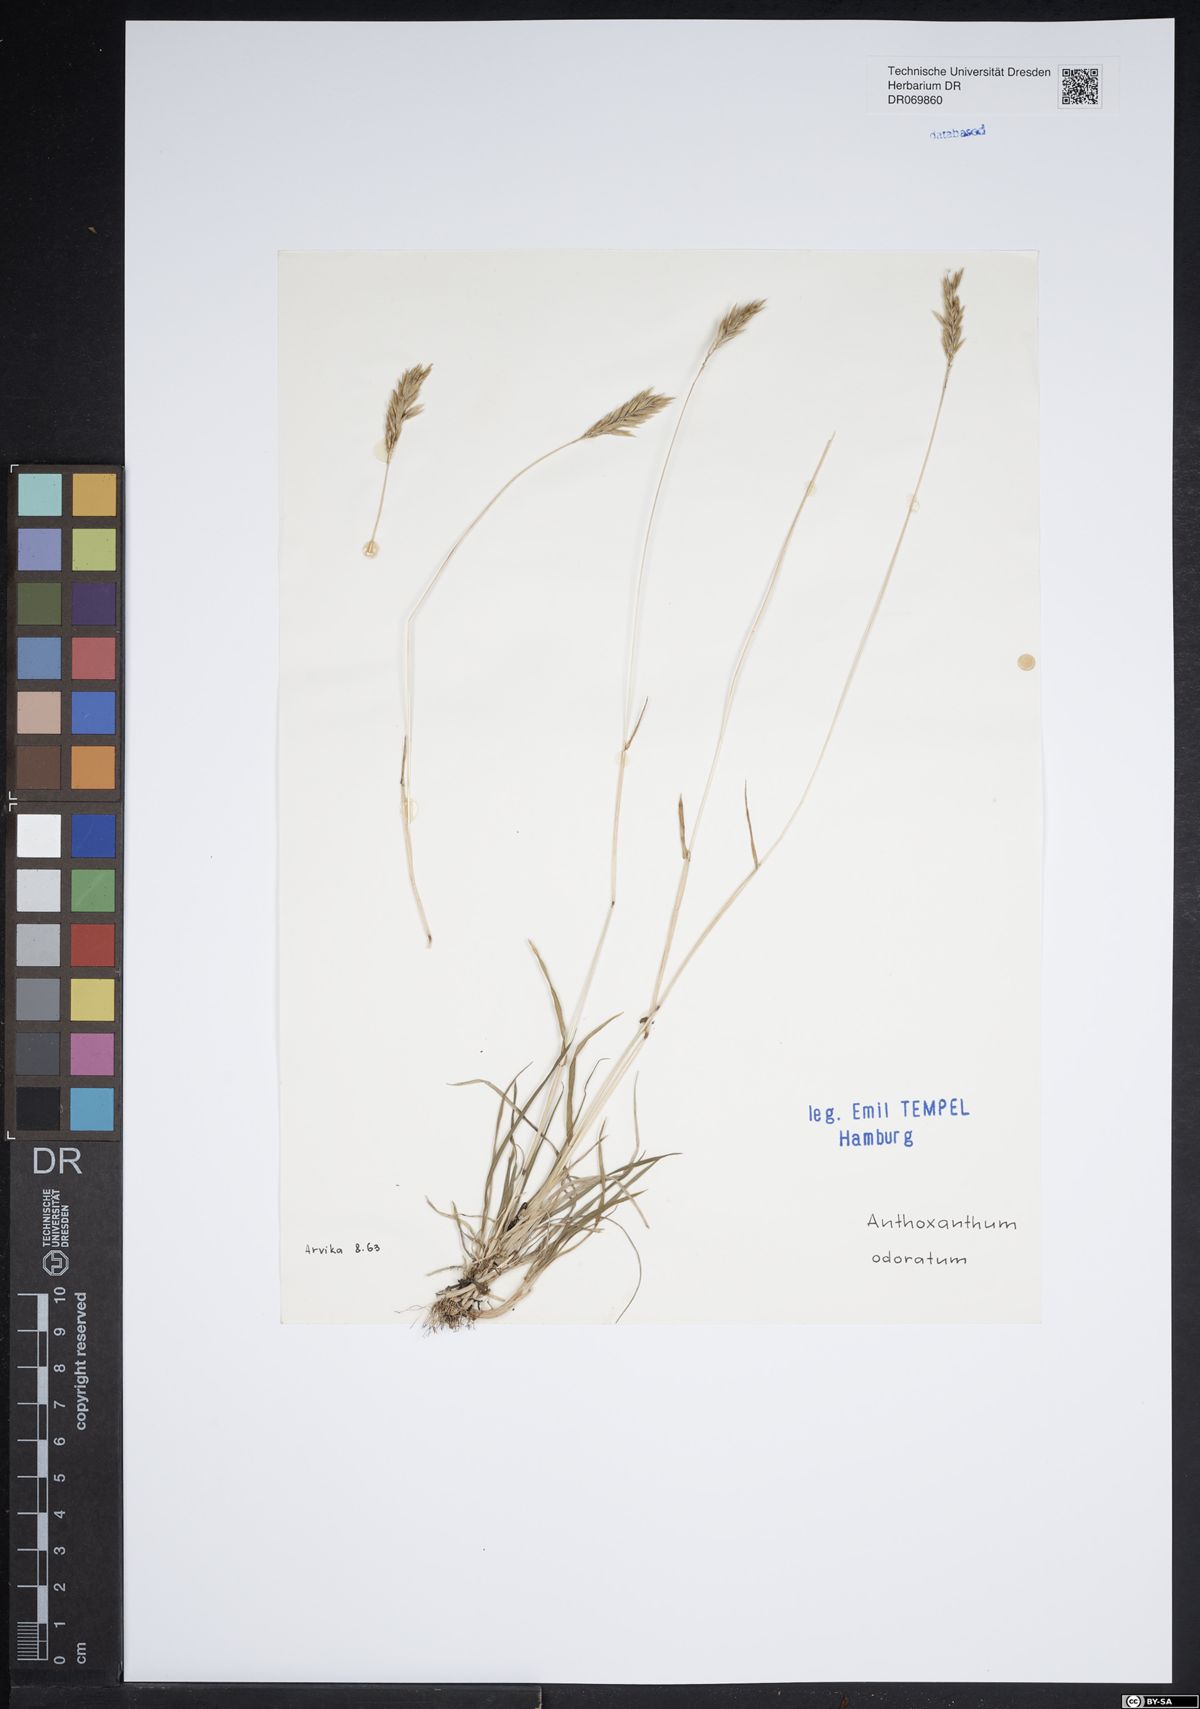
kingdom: Plantae
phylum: Tracheophyta
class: Liliopsida
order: Poales
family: Poaceae
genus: Anthoxanthum
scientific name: Anthoxanthum odoratum
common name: Sweet vernalgrass
